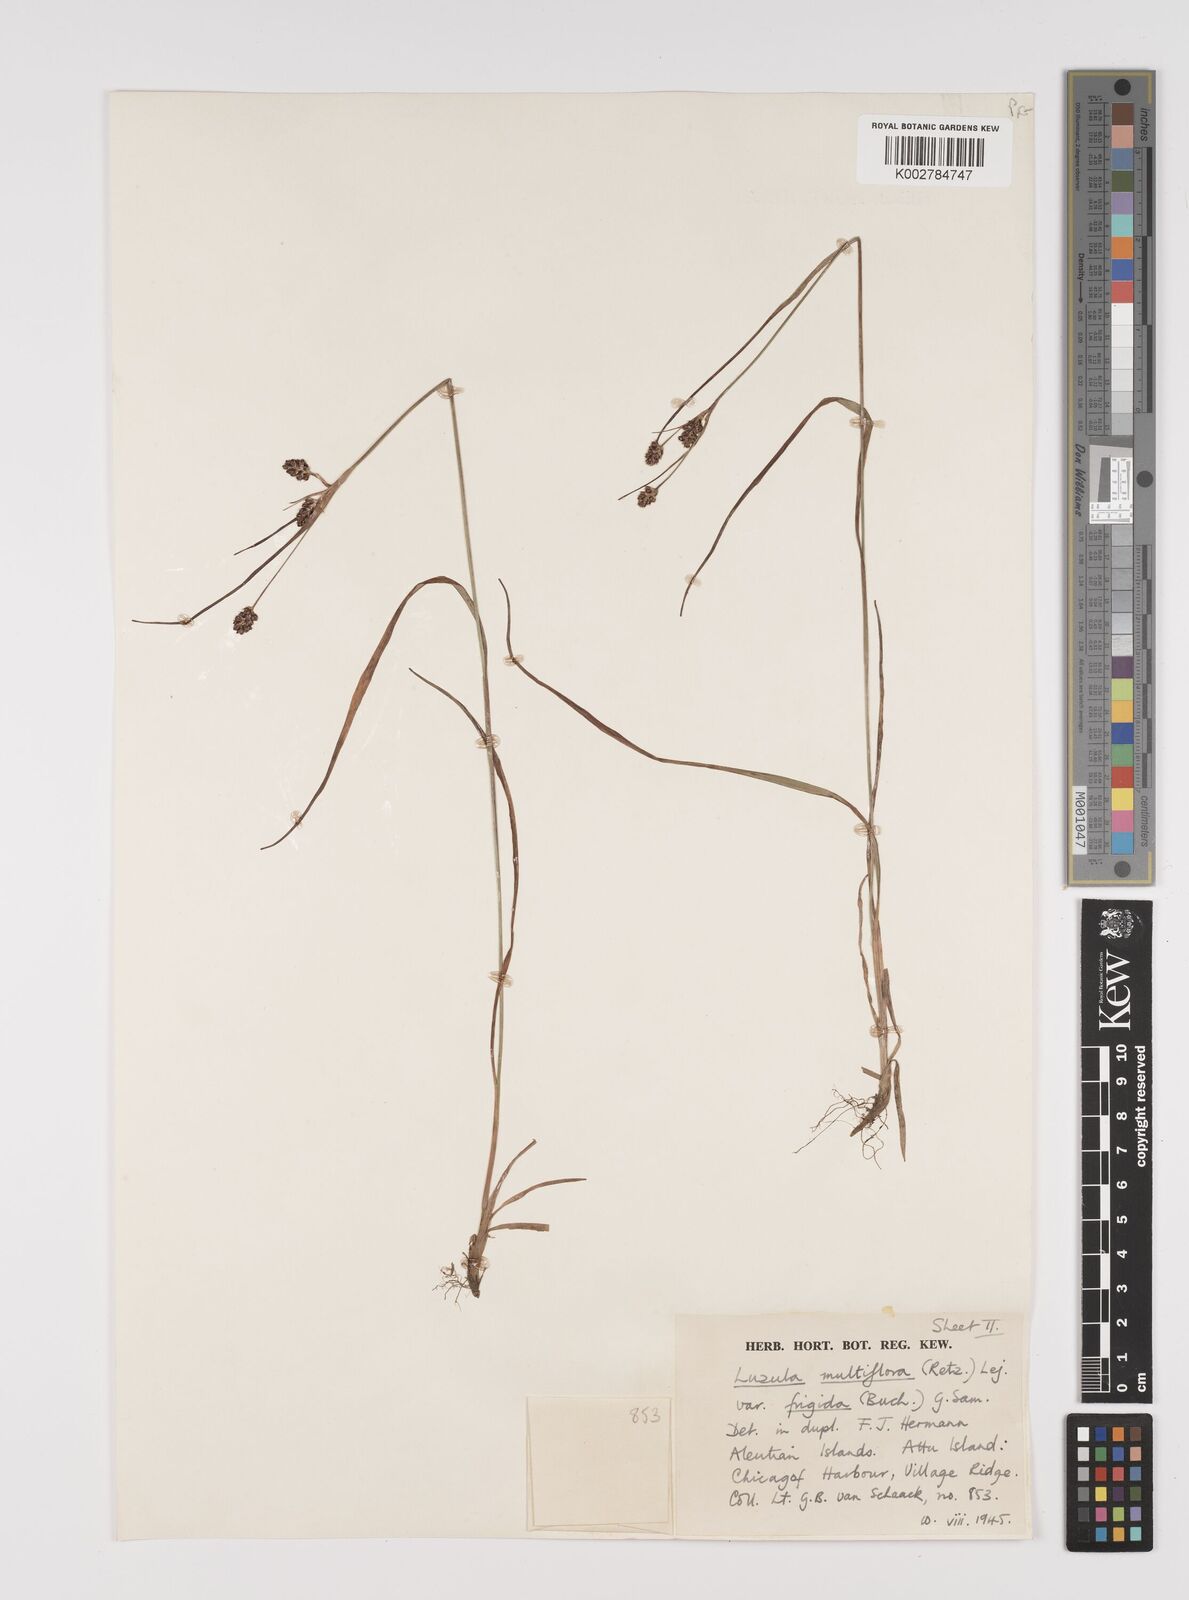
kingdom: Plantae
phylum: Tracheophyta
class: Liliopsida
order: Poales
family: Juncaceae
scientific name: Juncaceae
